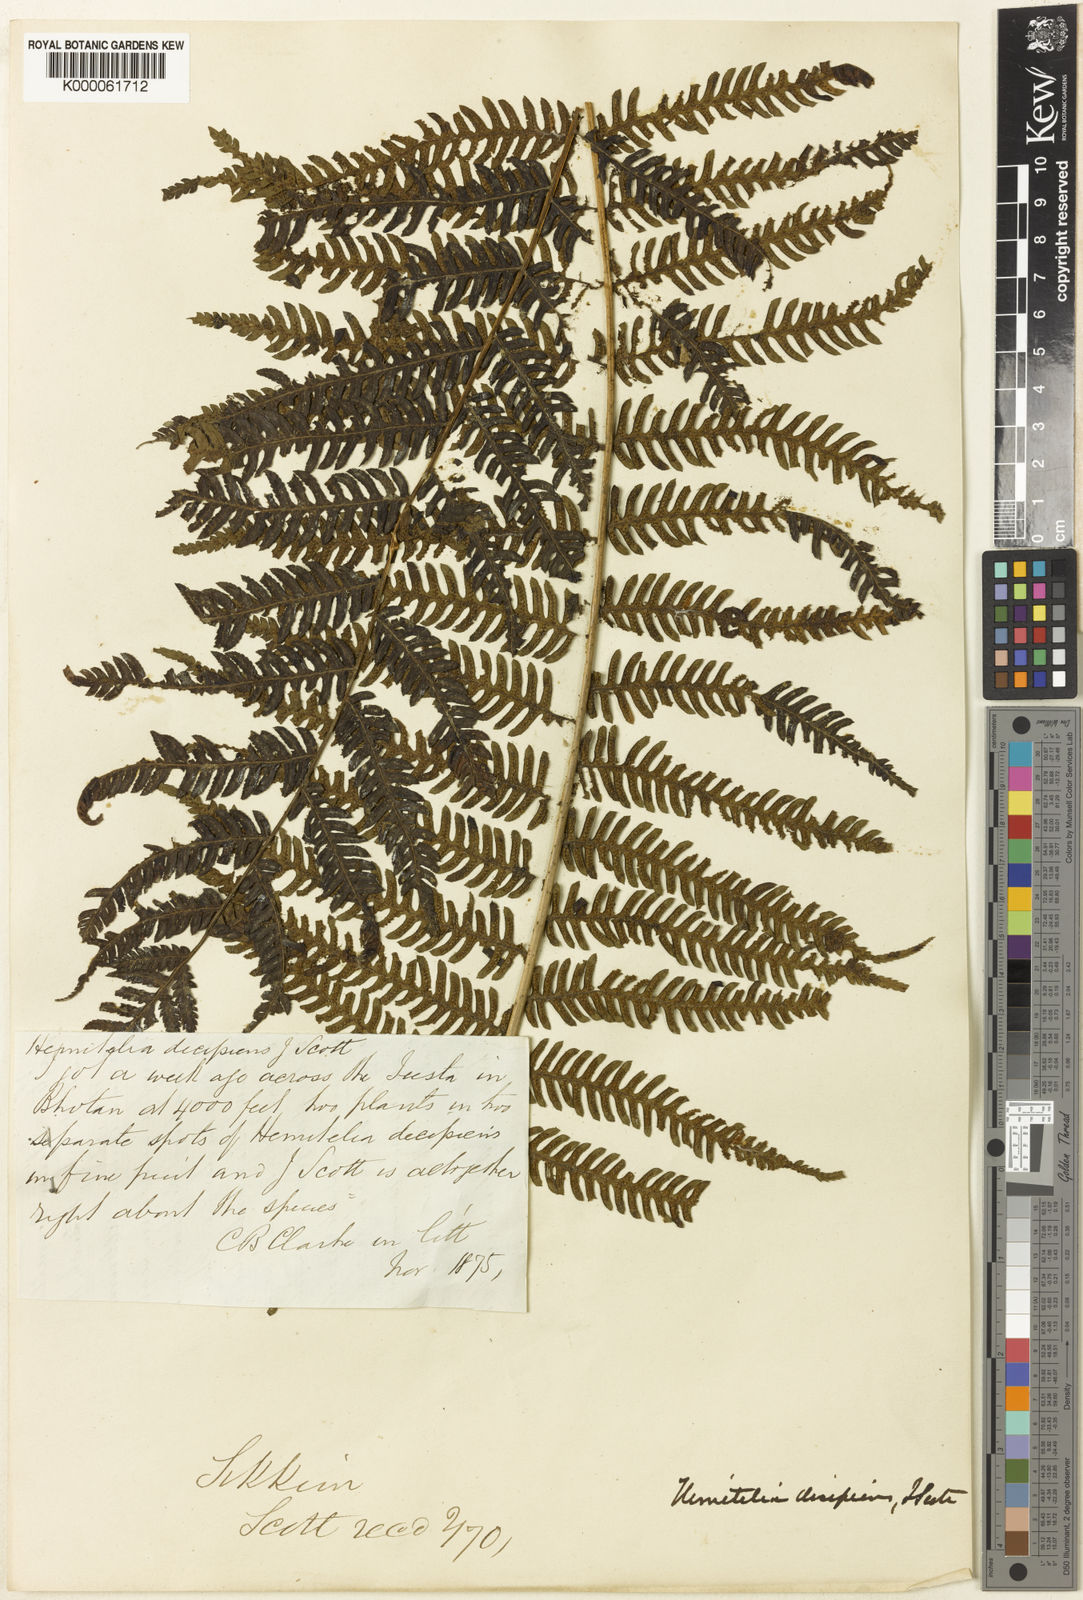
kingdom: Plantae
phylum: Tracheophyta
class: Polypodiopsida
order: Cyatheales
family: Cyatheaceae
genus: Cyathea
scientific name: Cyathea
